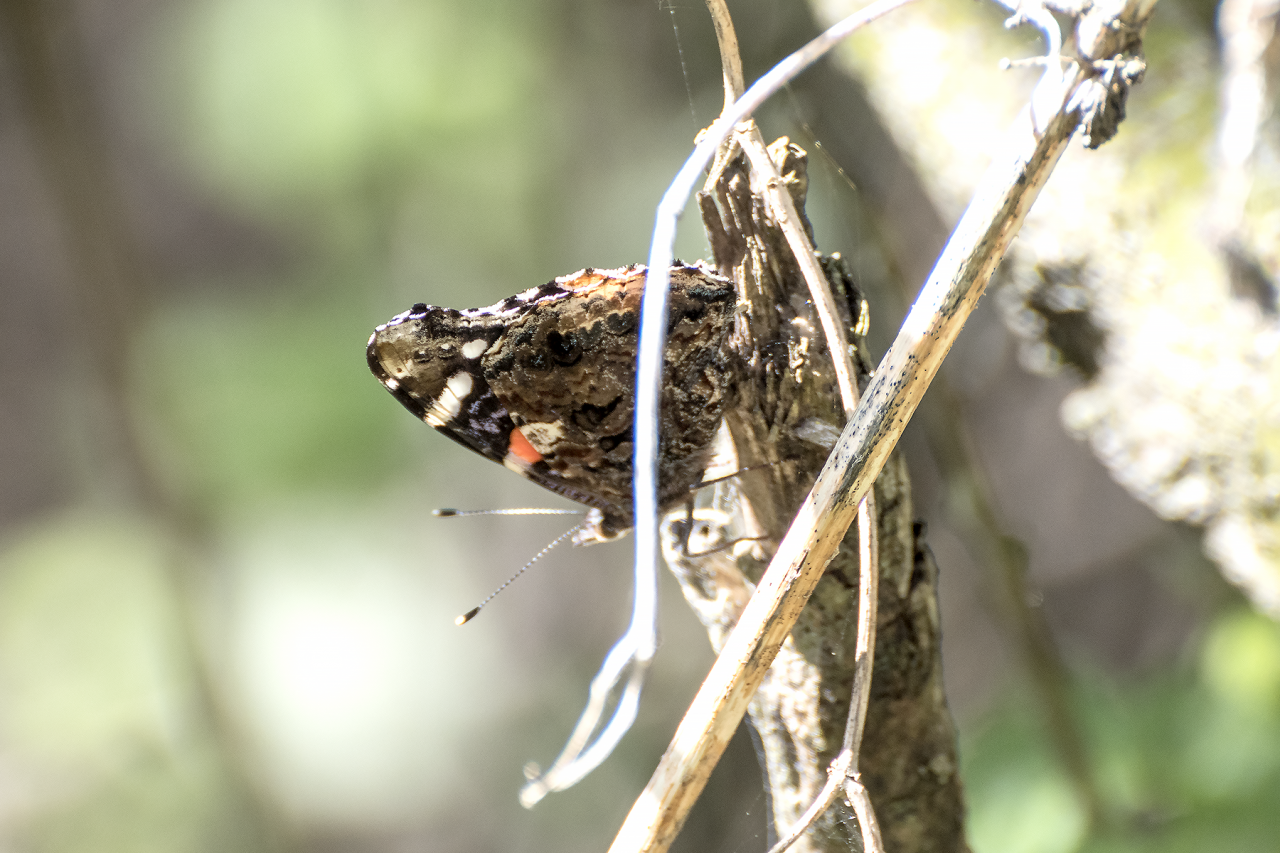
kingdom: Animalia
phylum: Arthropoda
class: Insecta
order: Lepidoptera
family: Nymphalidae
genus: Vanessa
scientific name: Vanessa atalanta
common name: Red Admiral
